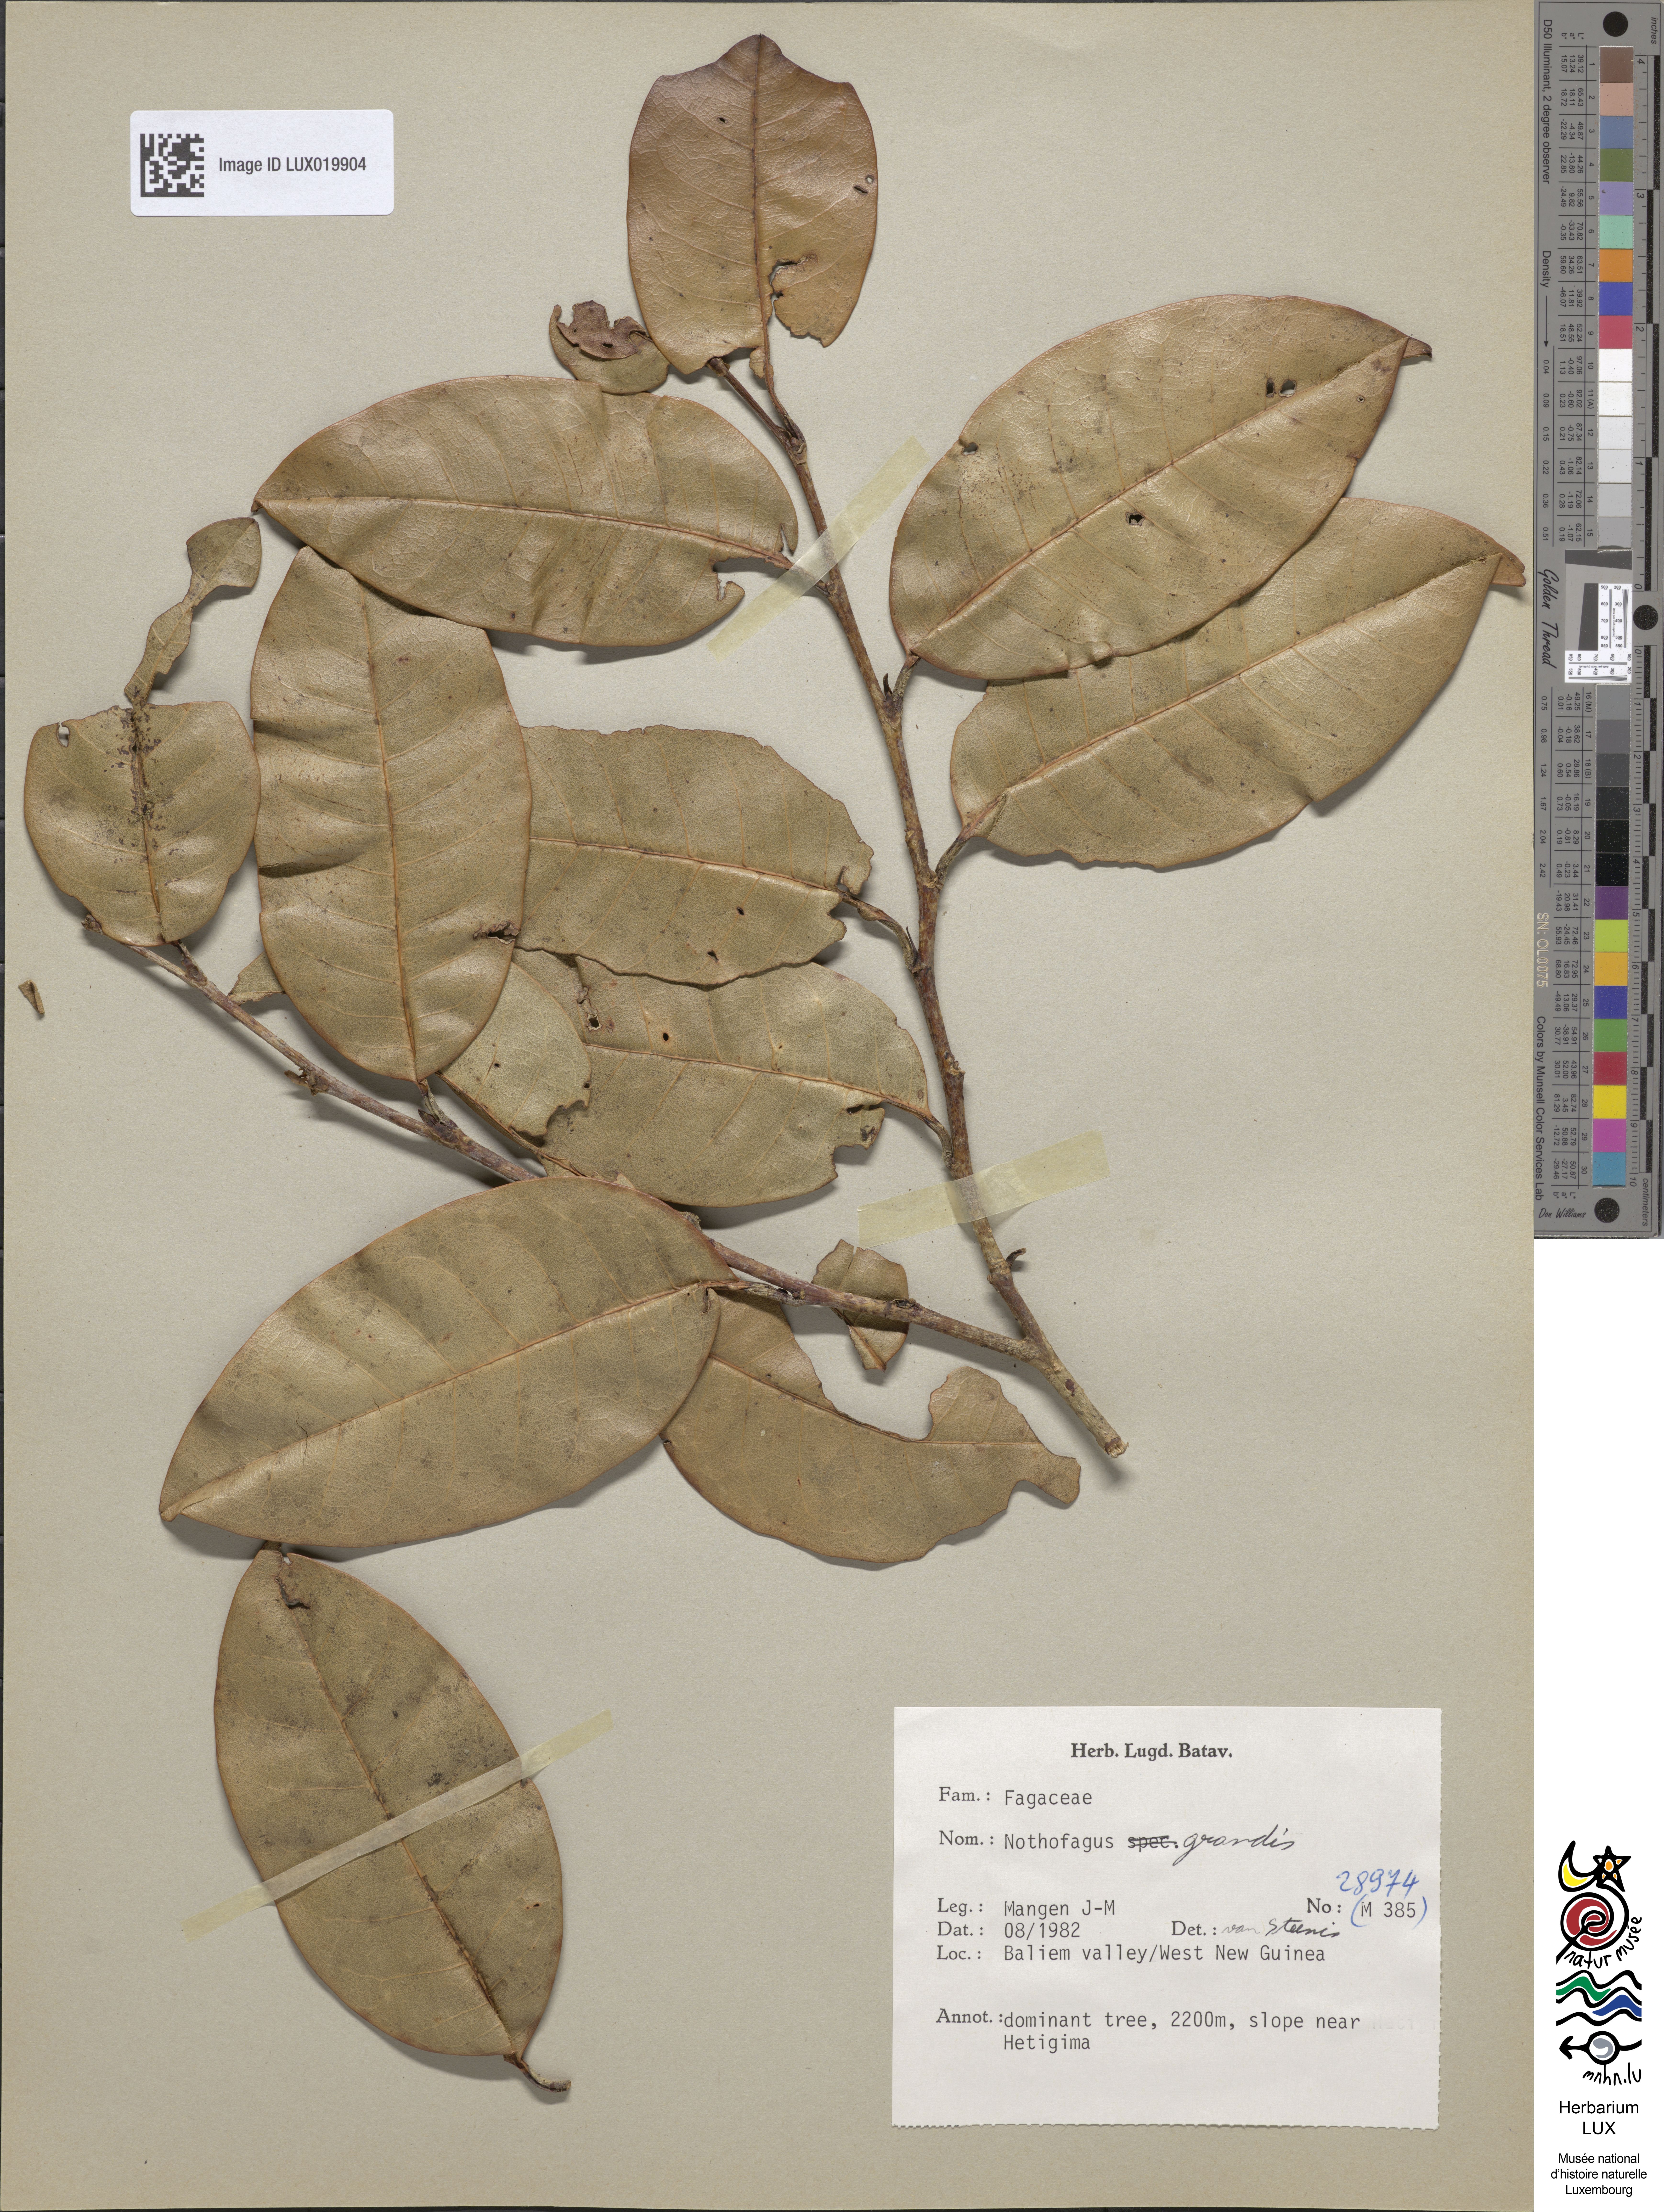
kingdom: Plantae
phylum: Tracheophyta
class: Magnoliopsida
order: Fagales
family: Nothofagaceae
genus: Nothofagus
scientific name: Nothofagus grandis
